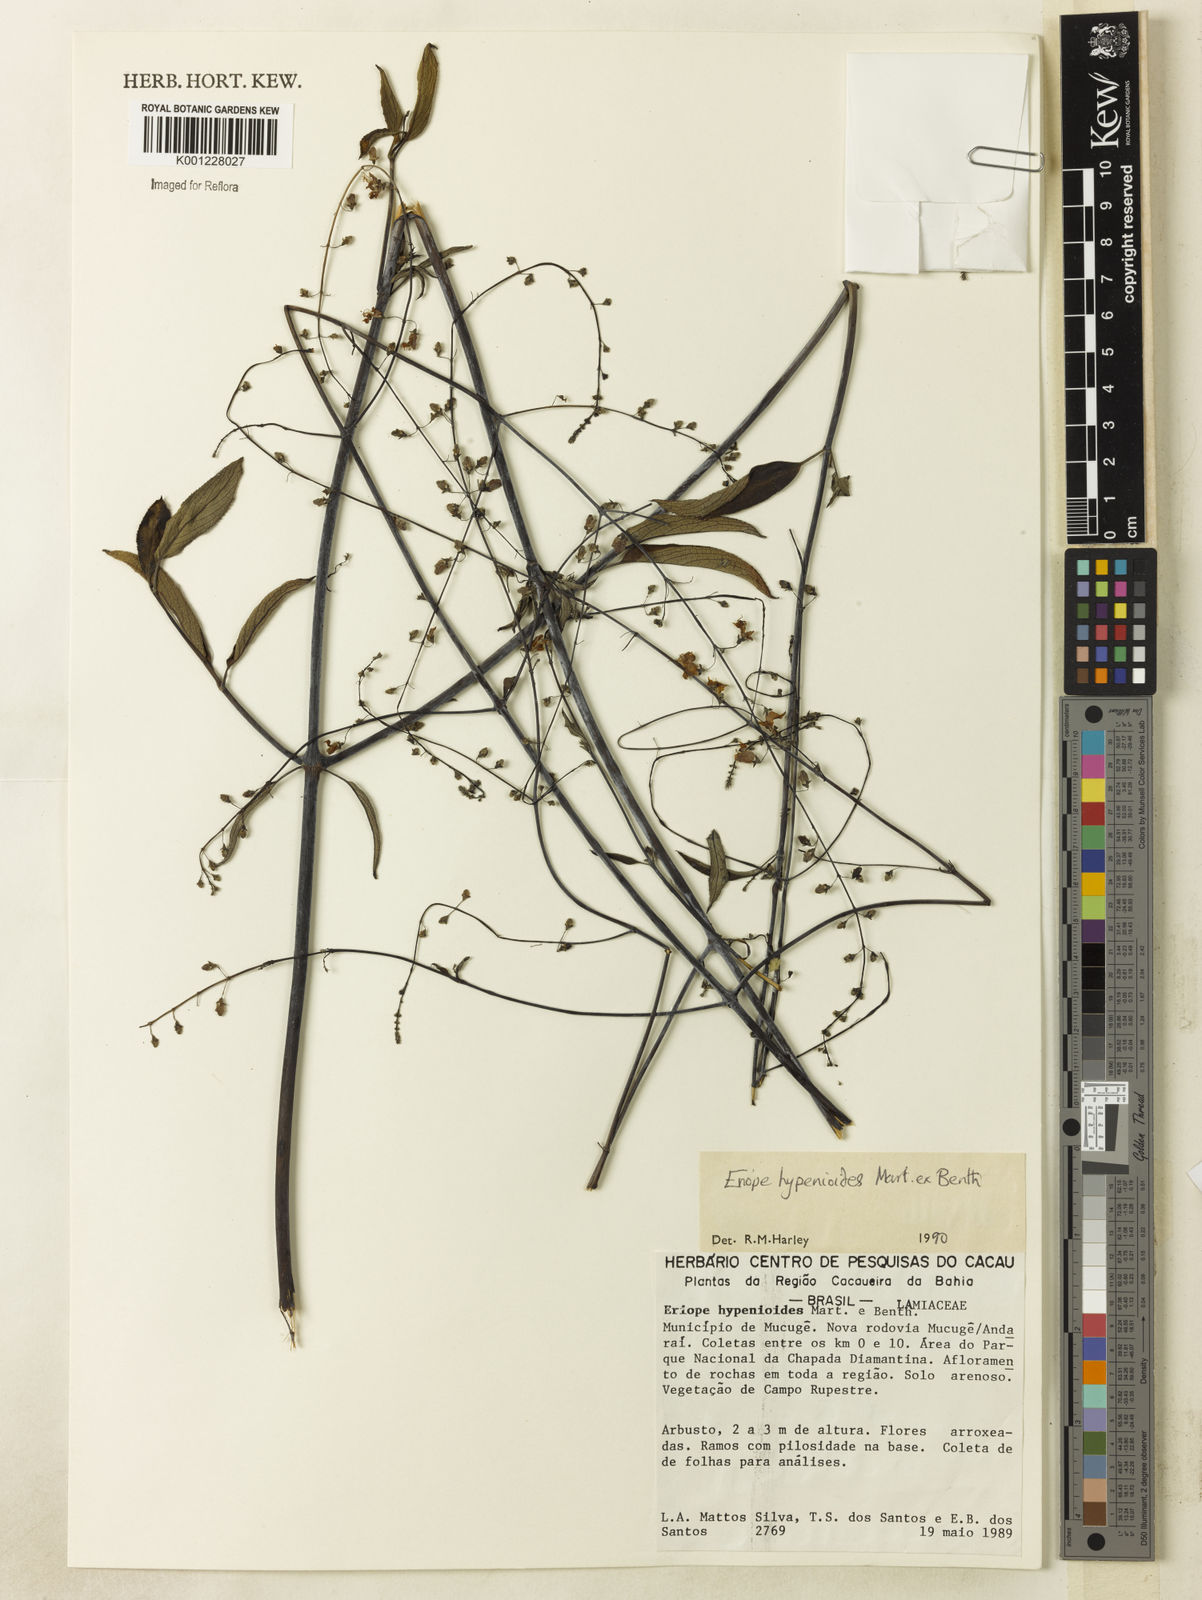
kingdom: Plantae
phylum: Tracheophyta
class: Magnoliopsida
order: Lamiales
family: Lamiaceae
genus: Eriope
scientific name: Eriope hypenioides
